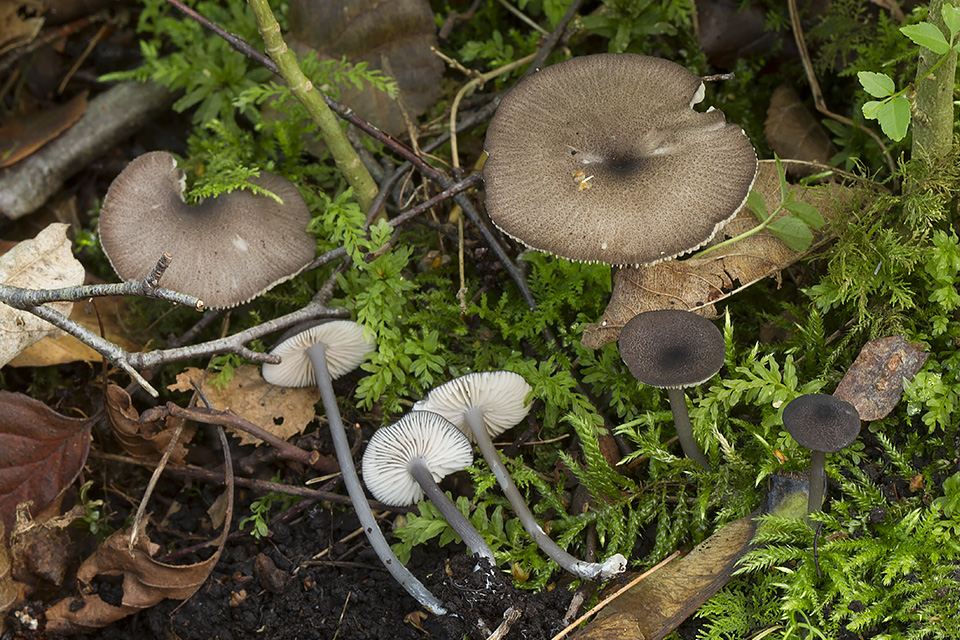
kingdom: Fungi
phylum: Basidiomycota
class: Agaricomycetes
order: Agaricales
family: Entolomataceae
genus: Entoloma
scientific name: Entoloma nordlandicum
